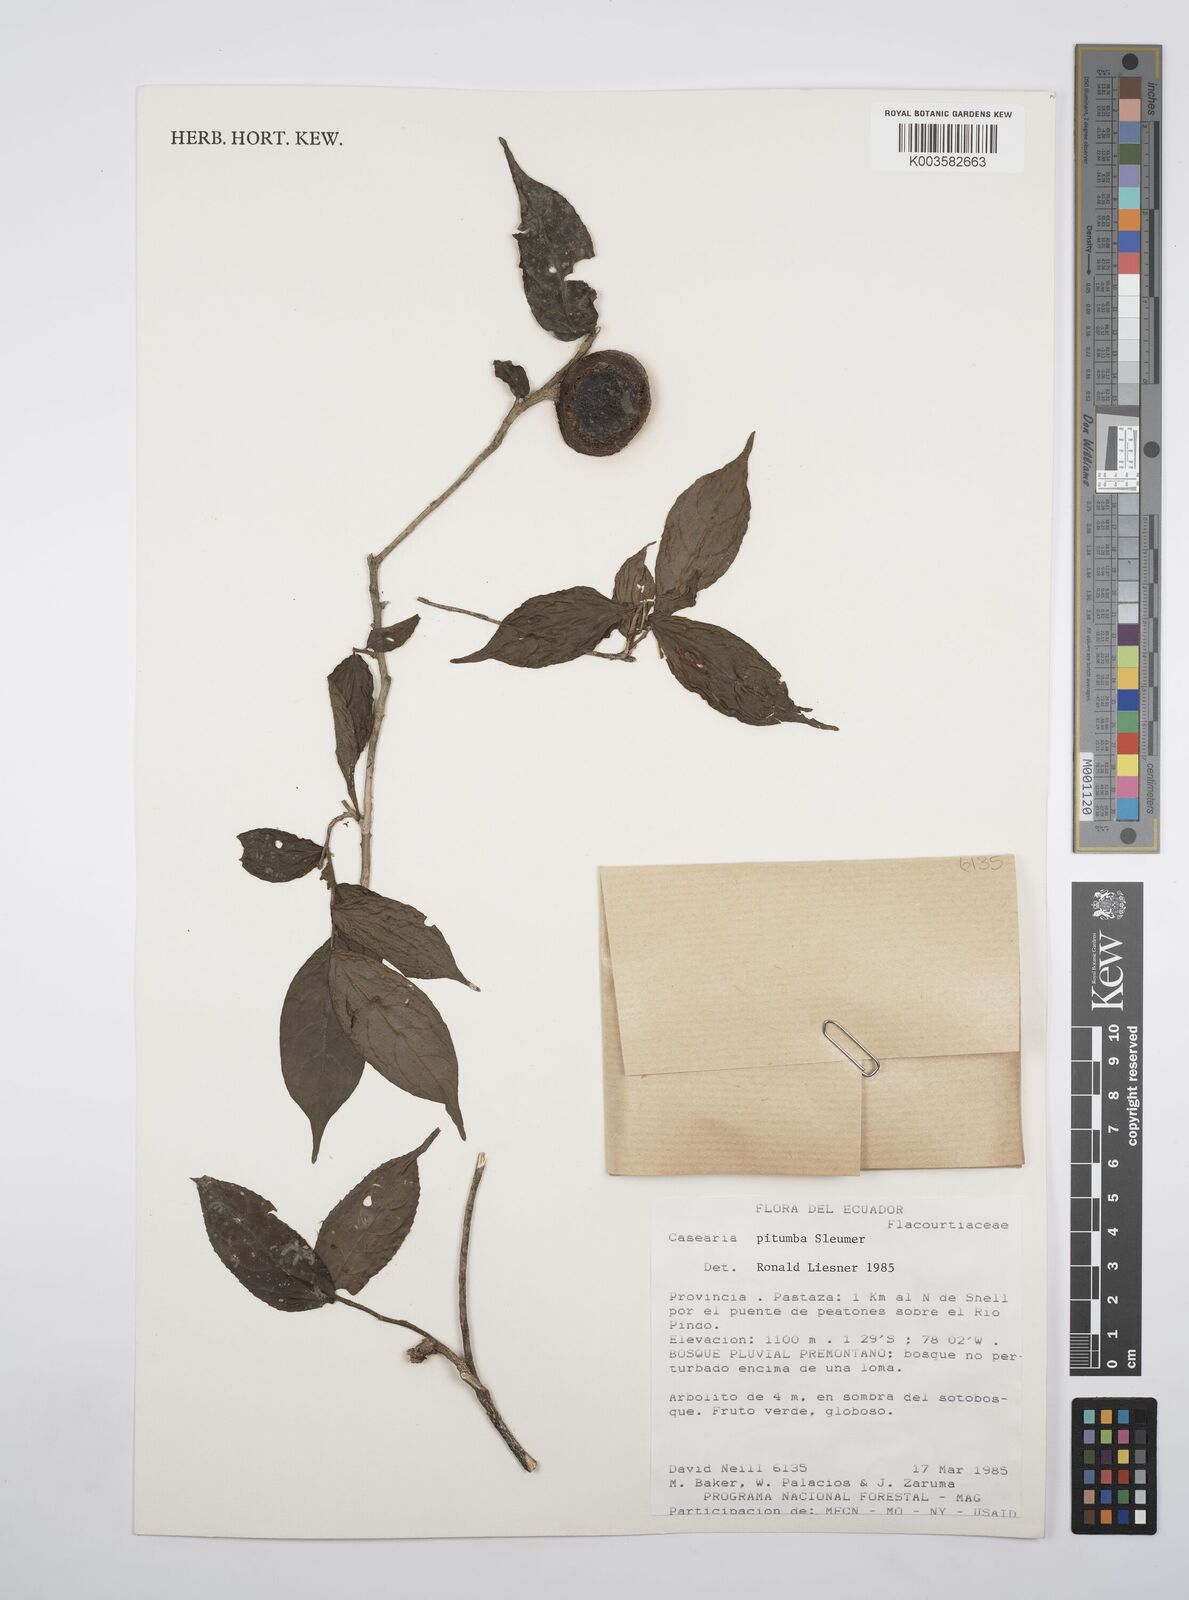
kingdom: Plantae
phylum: Tracheophyta
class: Magnoliopsida
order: Malpighiales
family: Salicaceae
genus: Casearia
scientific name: Casearia pitumba
